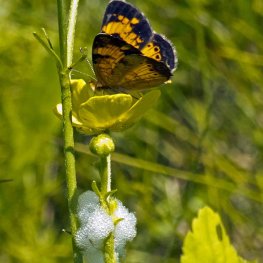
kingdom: Animalia
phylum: Arthropoda
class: Insecta
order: Lepidoptera
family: Nymphalidae
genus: Phyciodes
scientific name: Phyciodes tharos
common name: Northern Crescent
